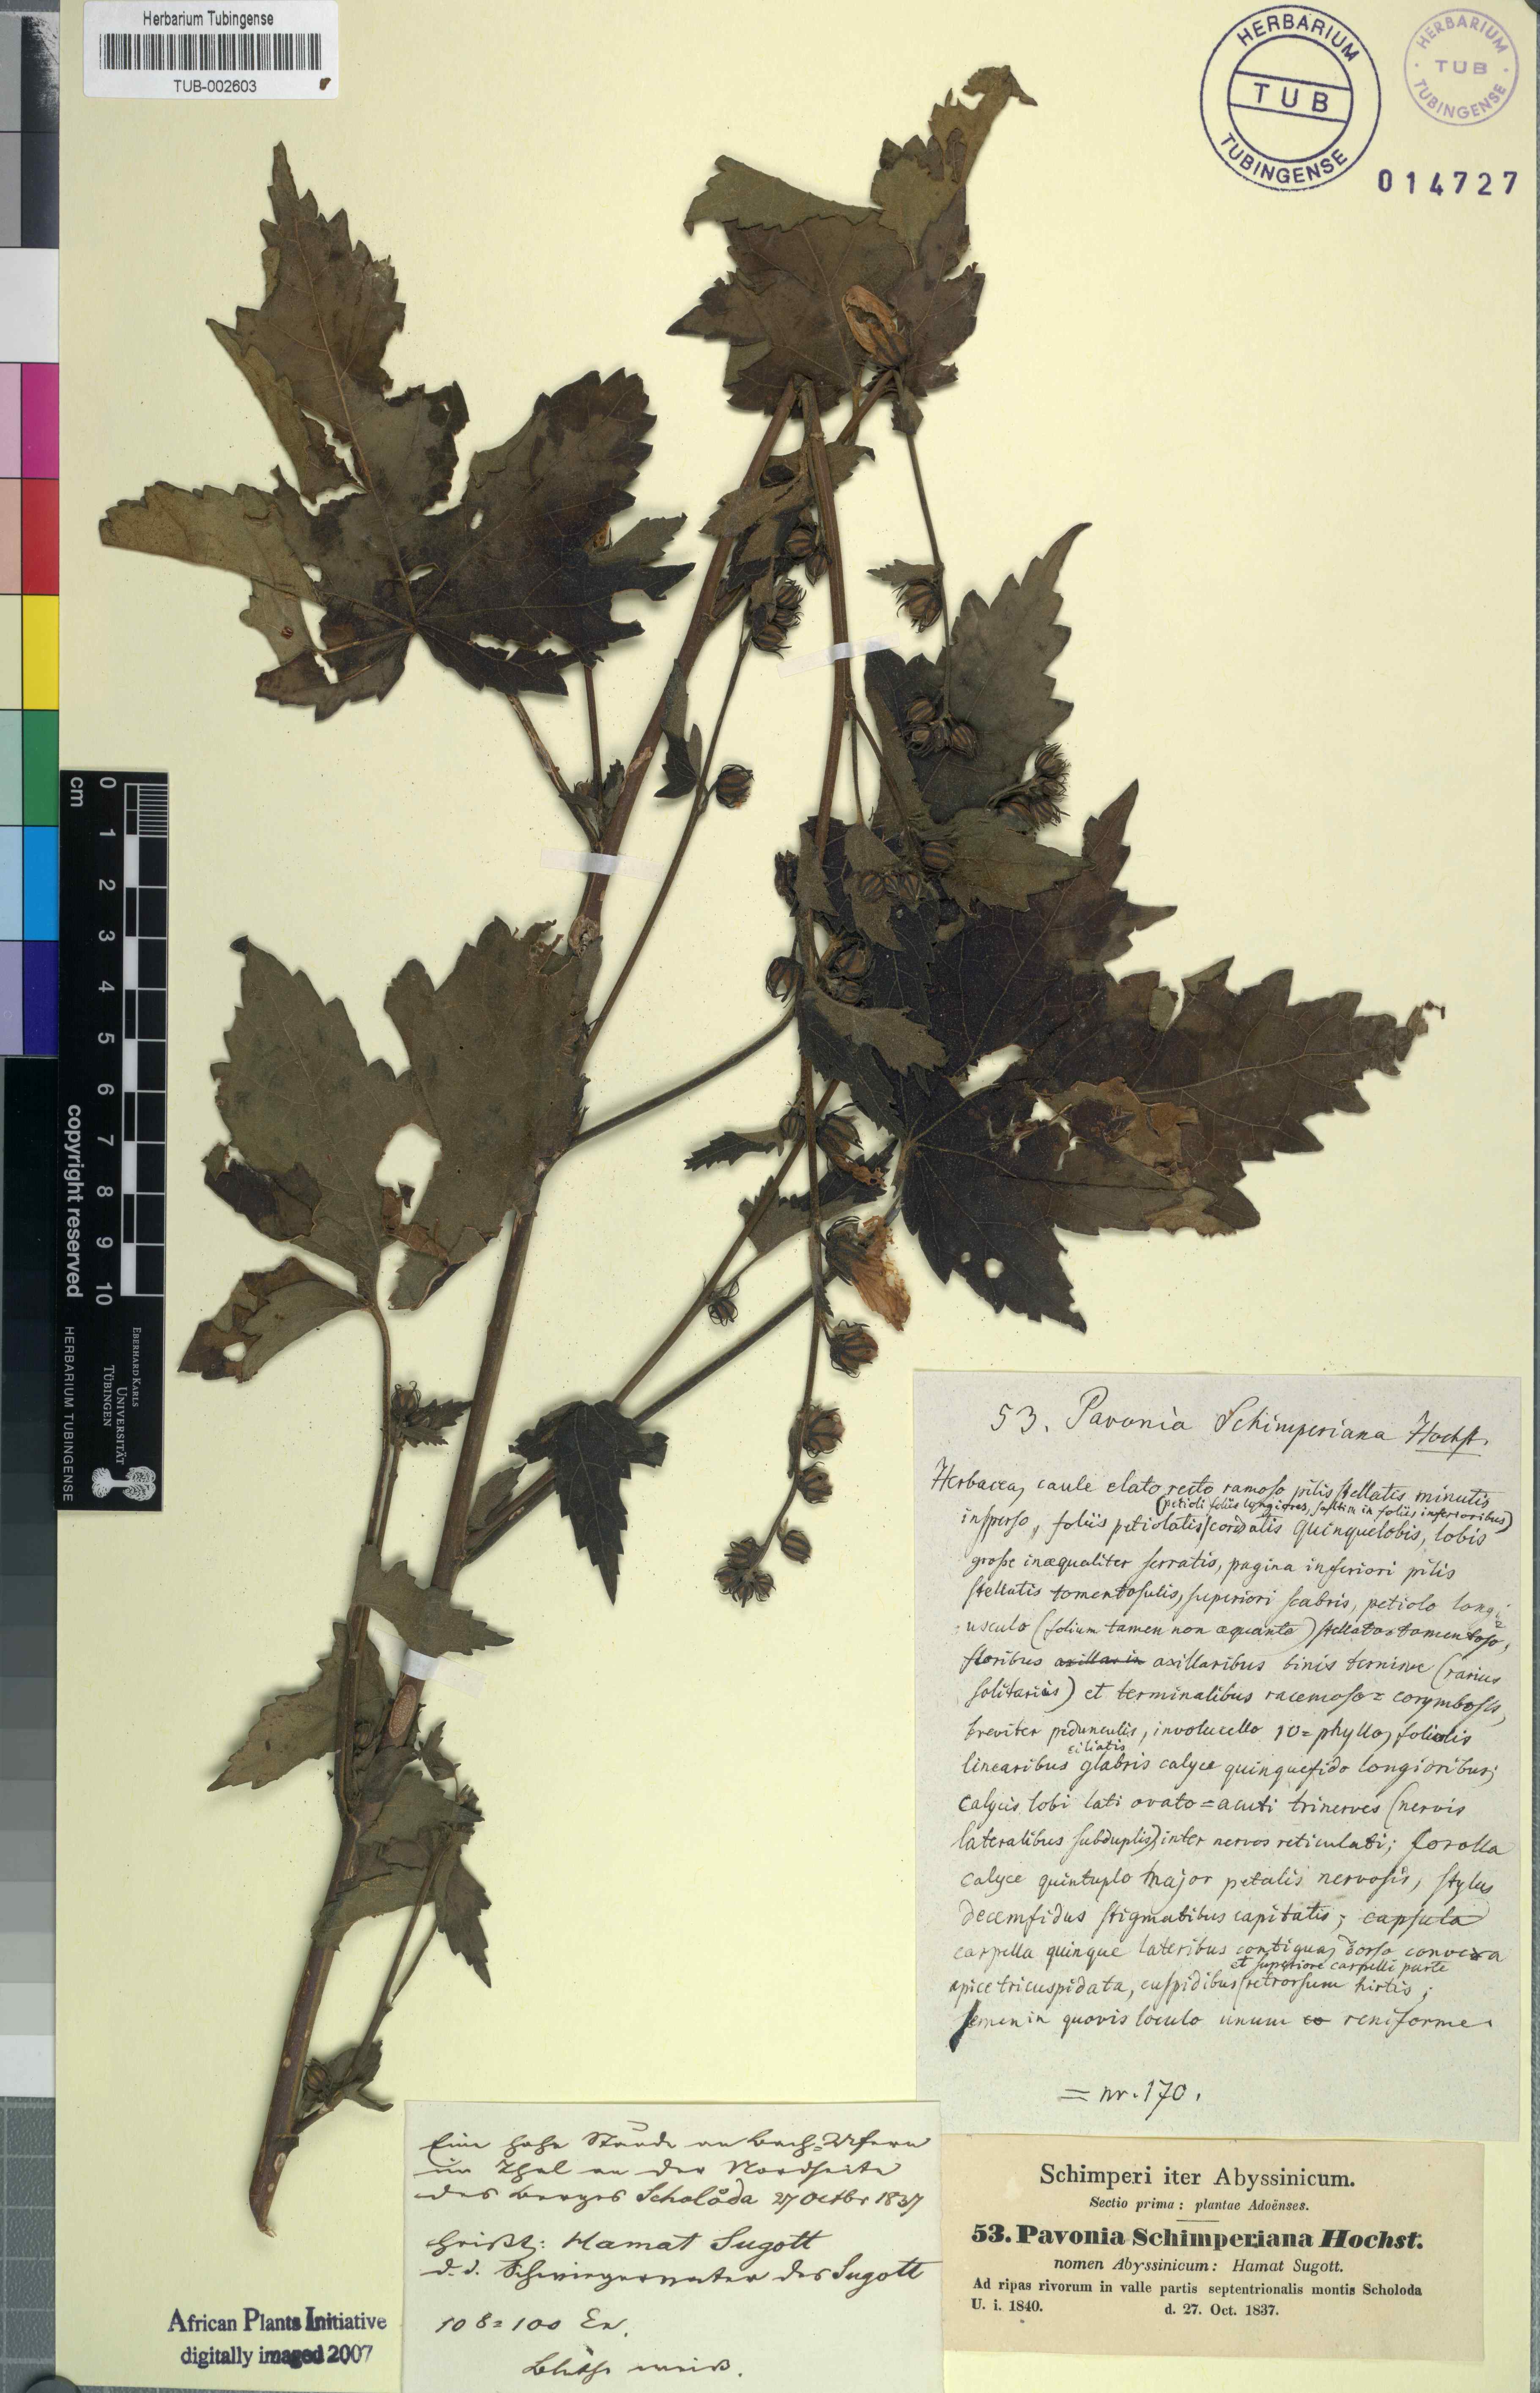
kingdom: Plantae
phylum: Tracheophyta
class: Magnoliopsida
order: Malvales
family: Malvaceae
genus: Pavonia
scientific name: Pavonia schimperiana
